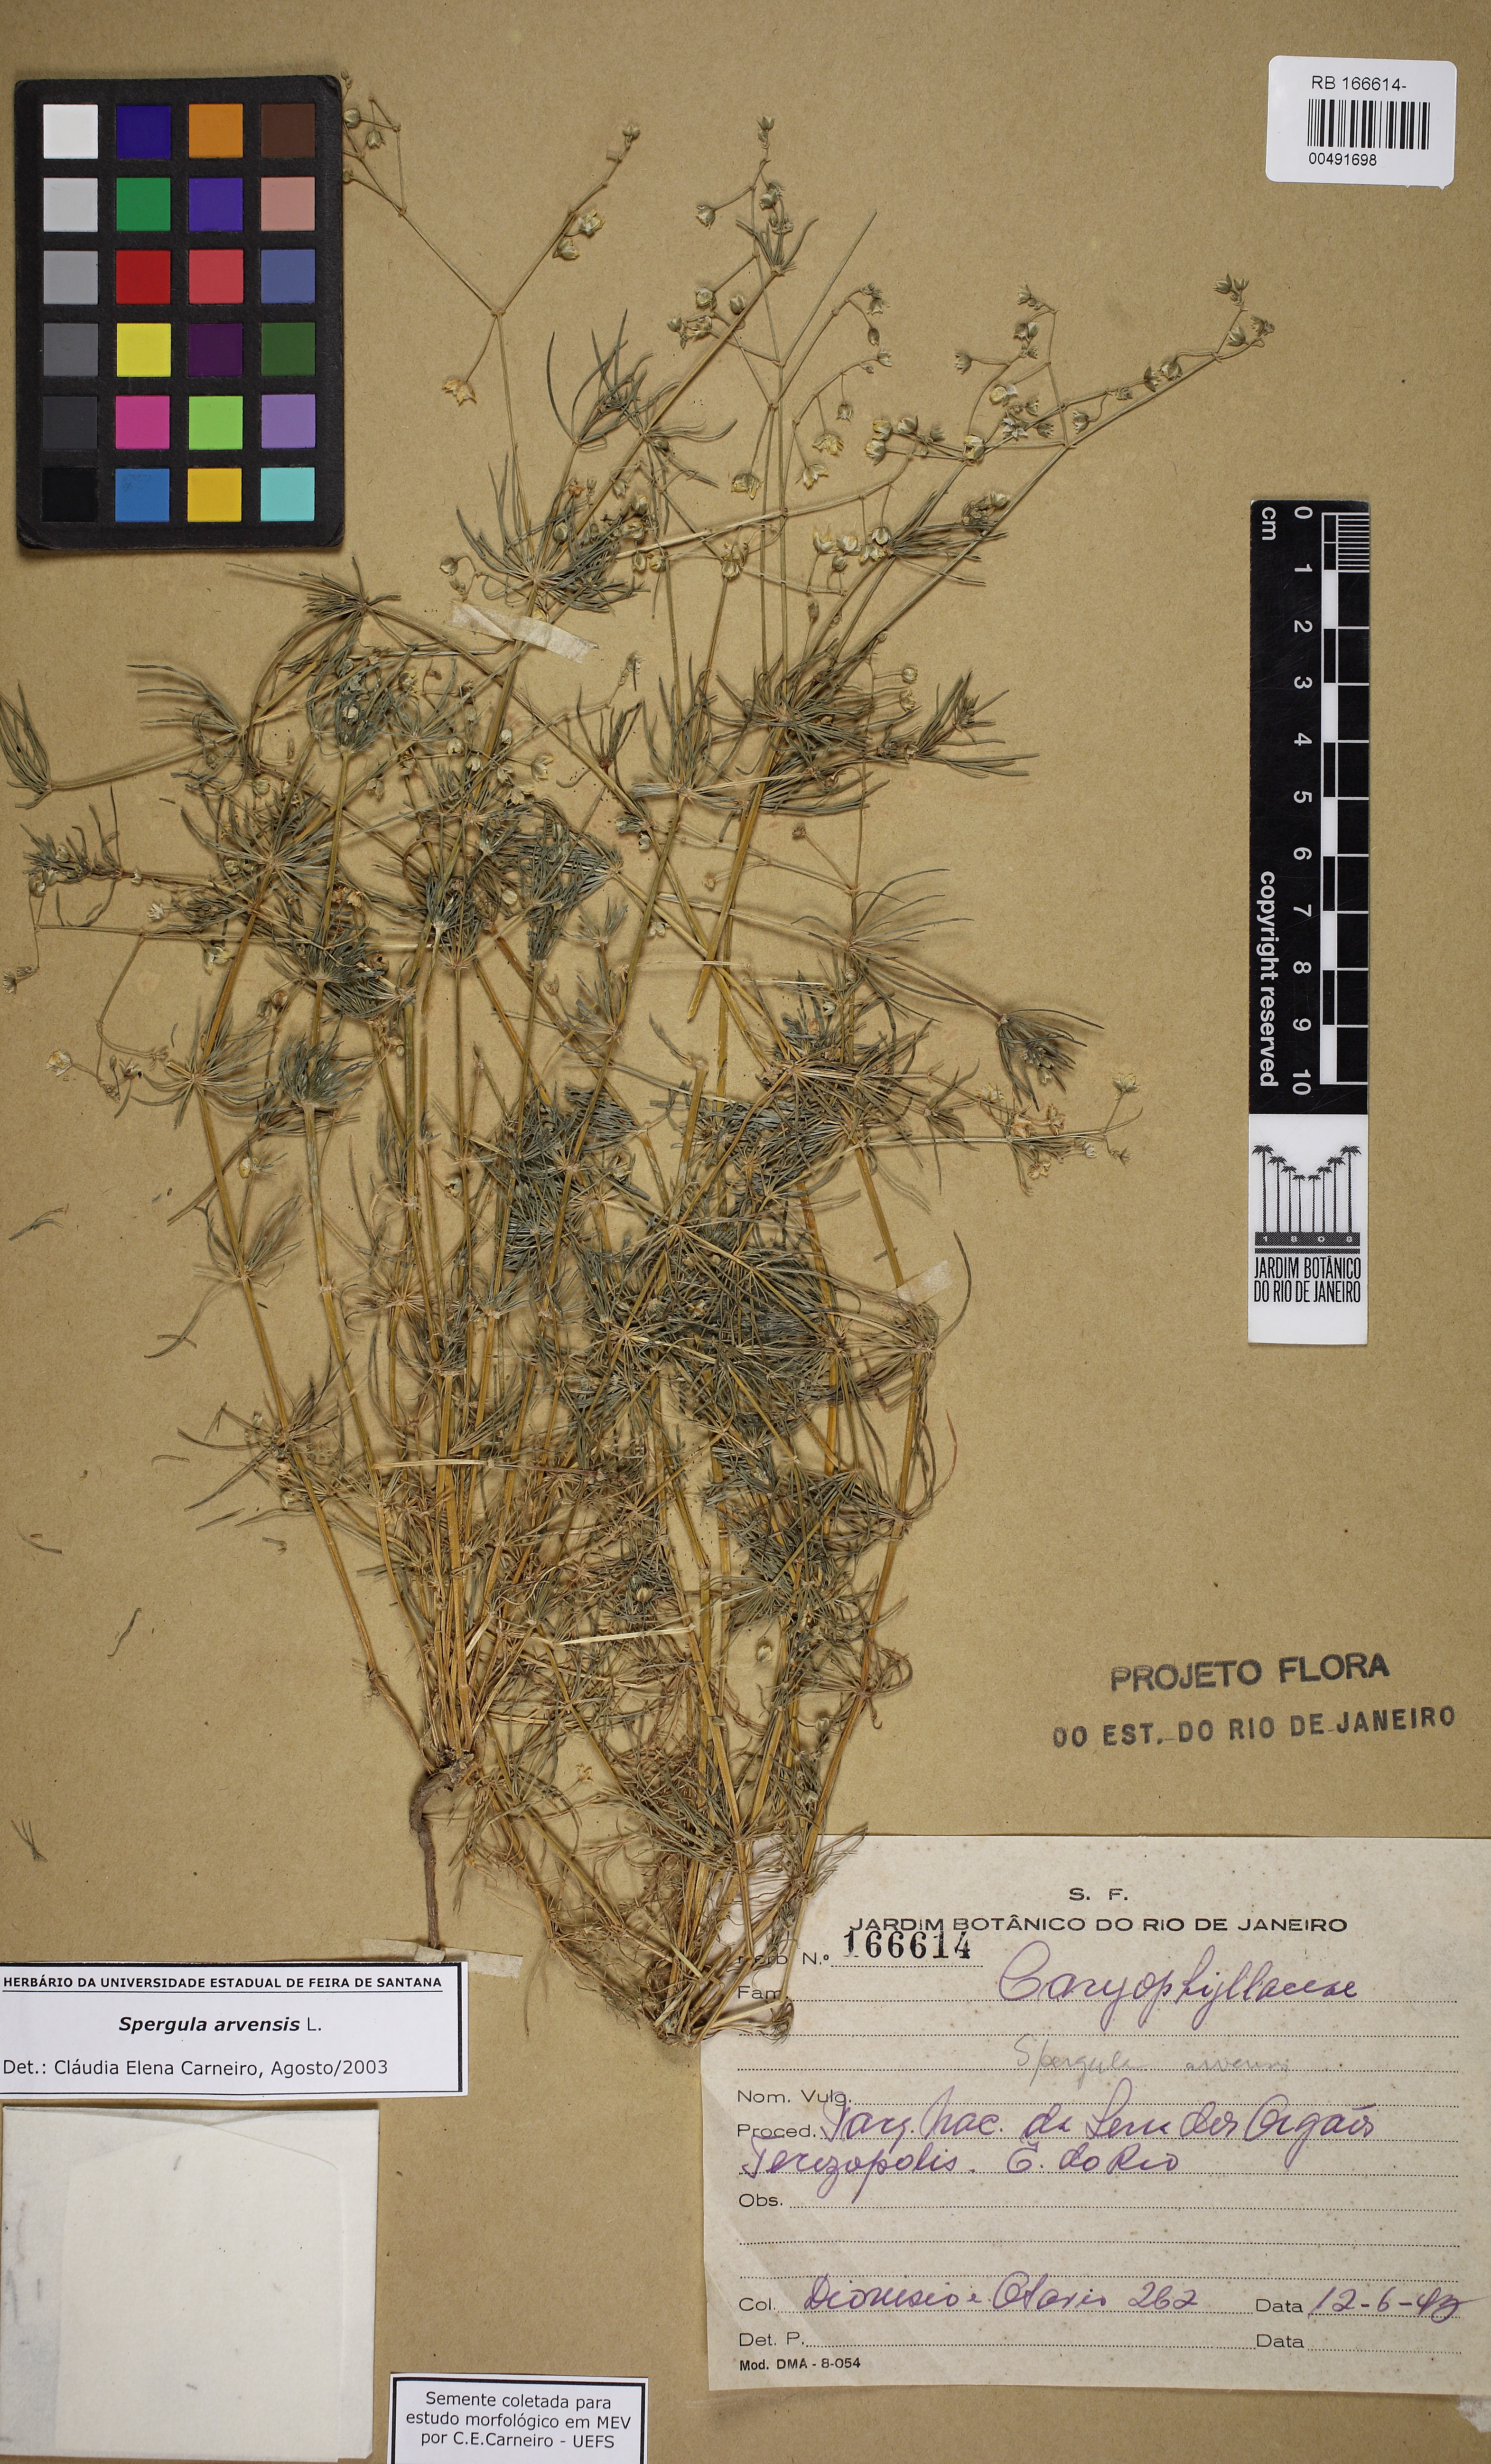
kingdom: Plantae
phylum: Tracheophyta
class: Magnoliopsida
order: Caryophyllales
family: Caryophyllaceae
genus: Spergula
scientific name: Spergula arvensis
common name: Corn spurrey
